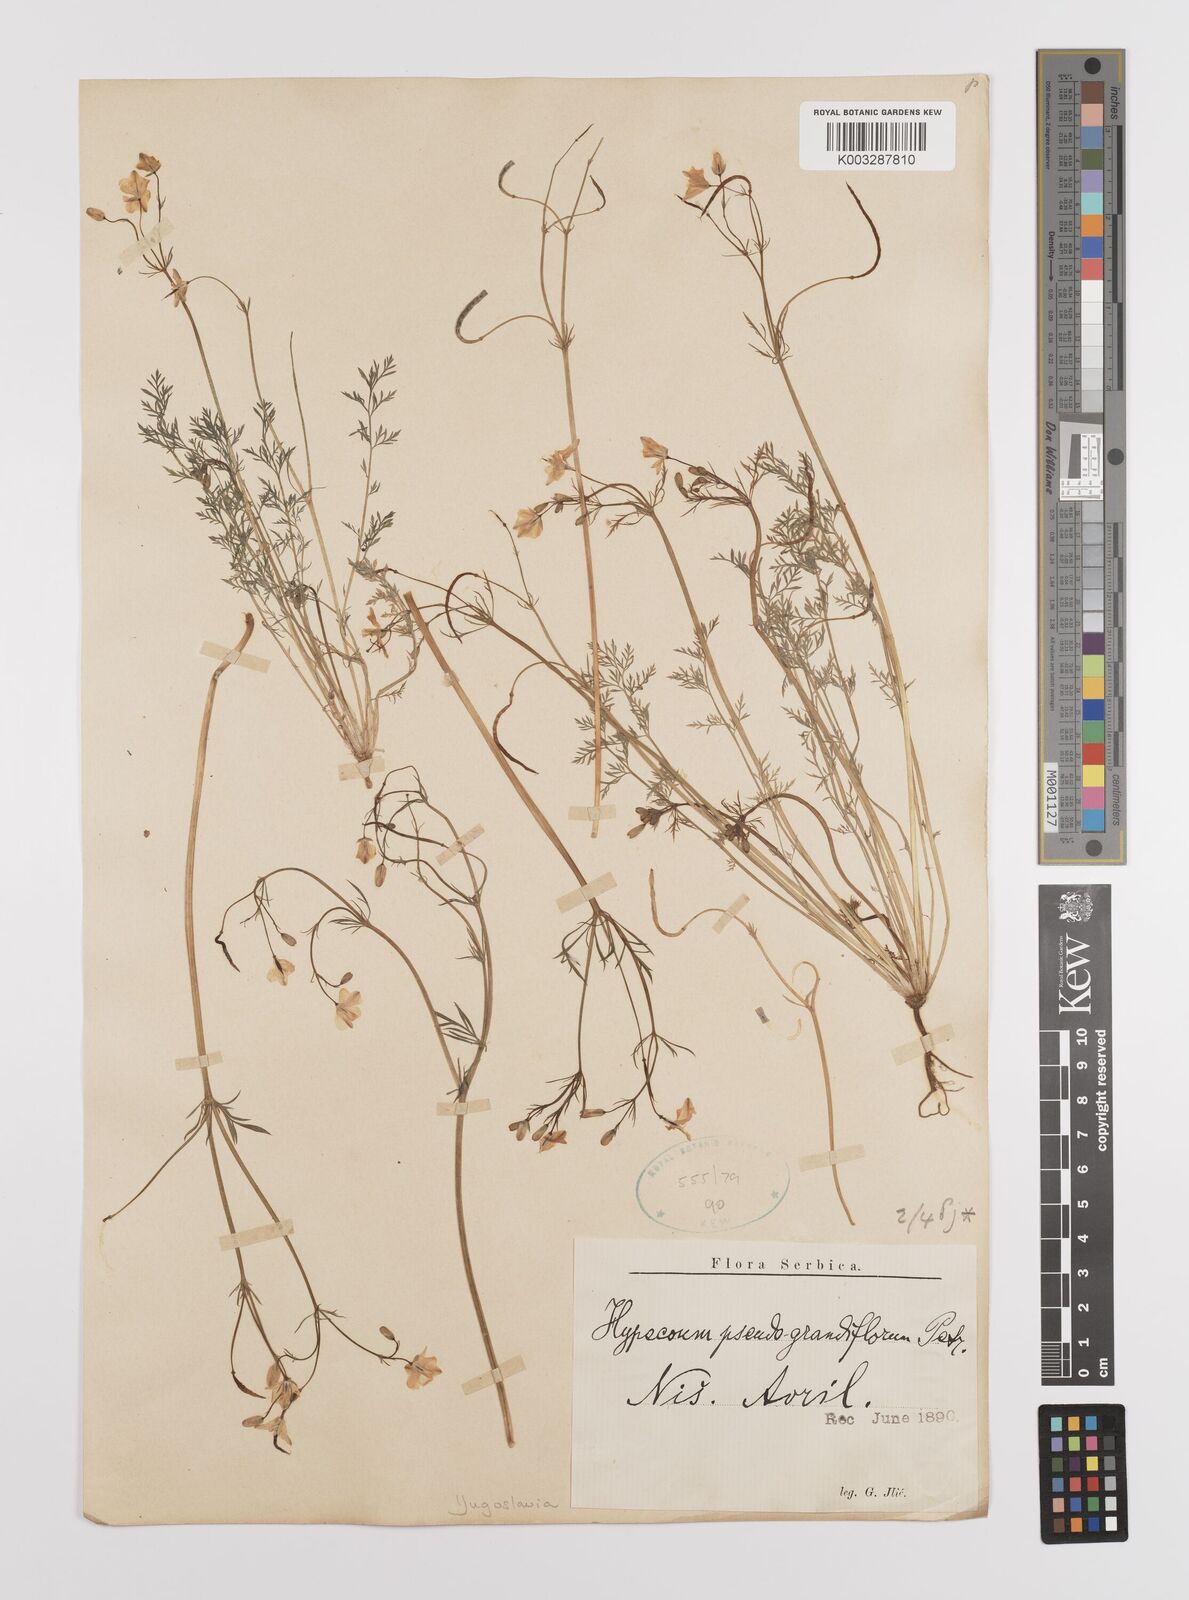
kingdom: Plantae
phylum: Tracheophyta
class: Magnoliopsida
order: Ranunculales
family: Papaveraceae
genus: Hypecoum
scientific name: Hypecoum imberbe
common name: Sicklefruit hypecoum
